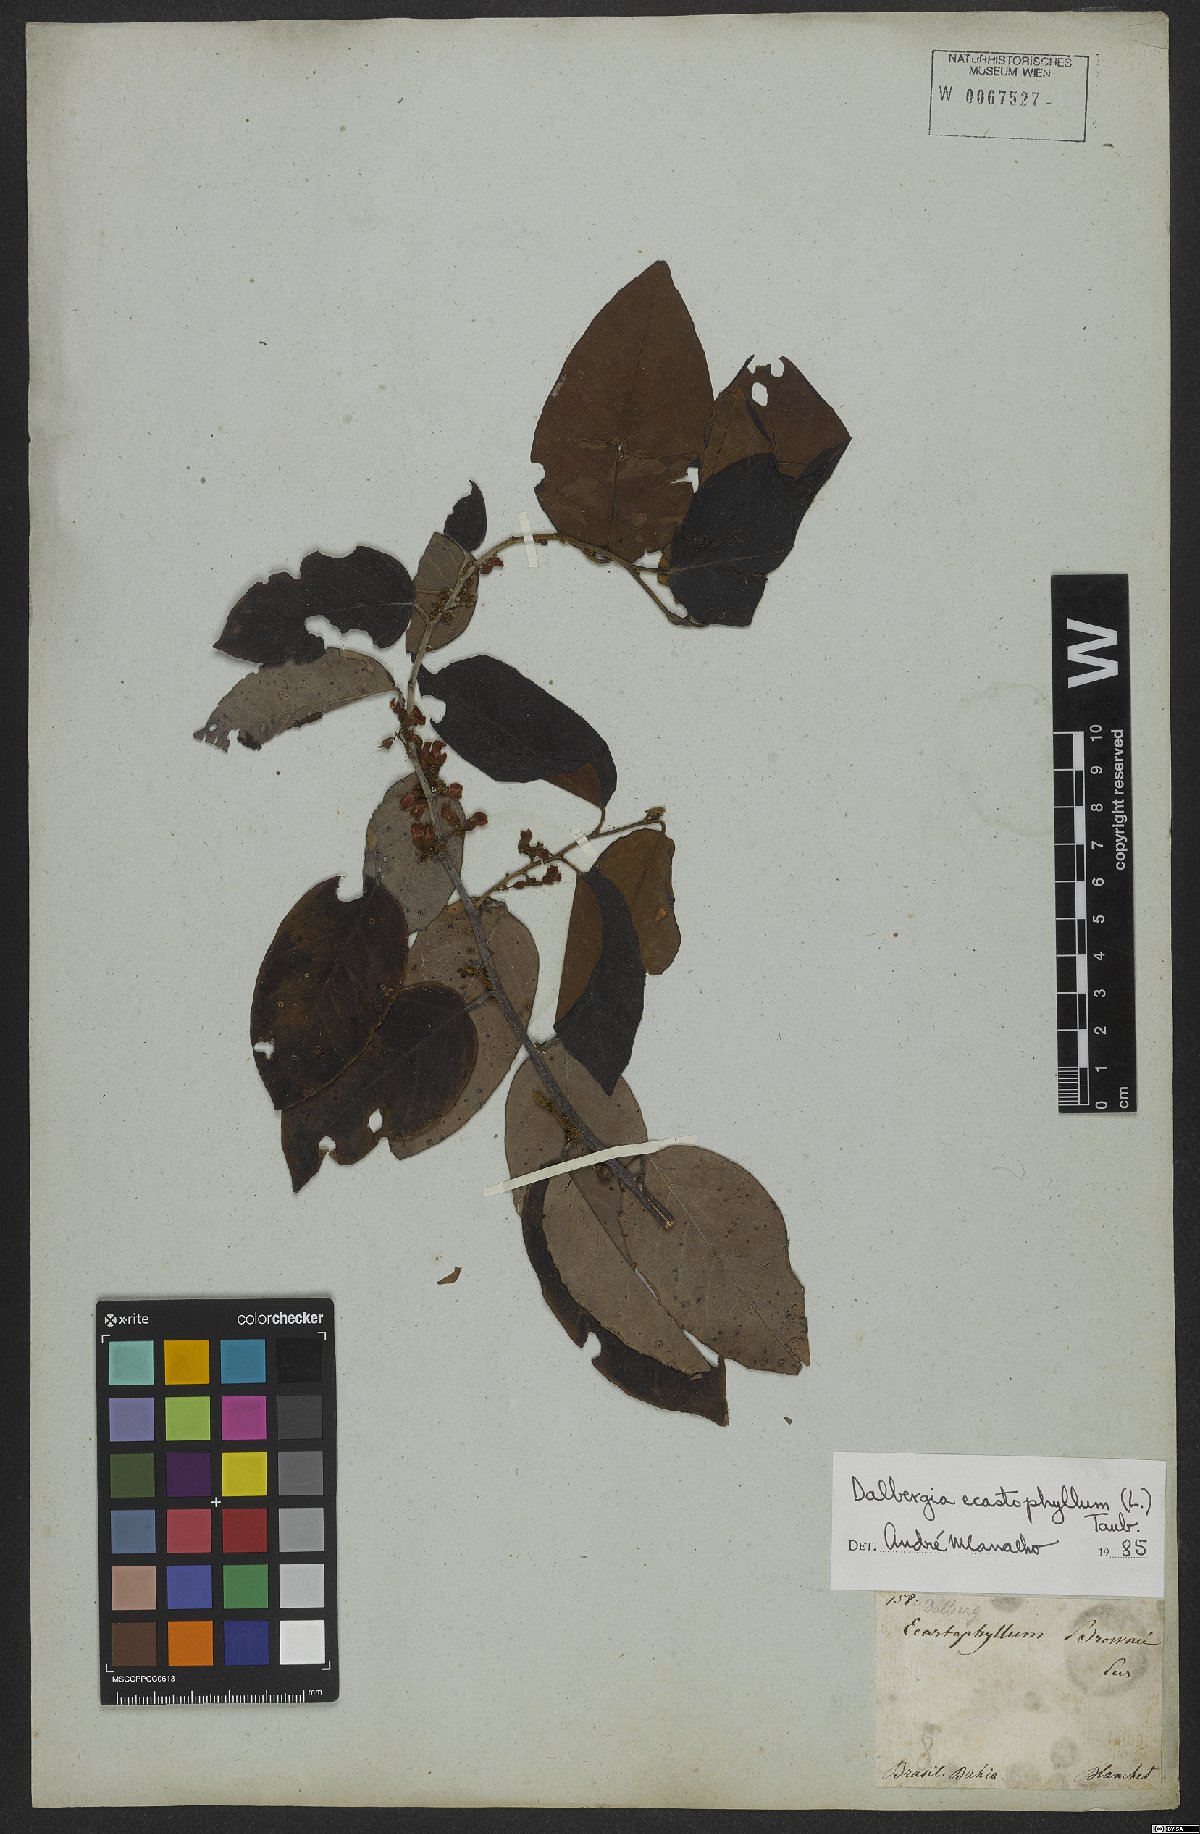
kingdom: Plantae
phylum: Tracheophyta
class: Magnoliopsida
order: Fabales
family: Fabaceae
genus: Dalbergia
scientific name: Dalbergia ecastaphyllum
